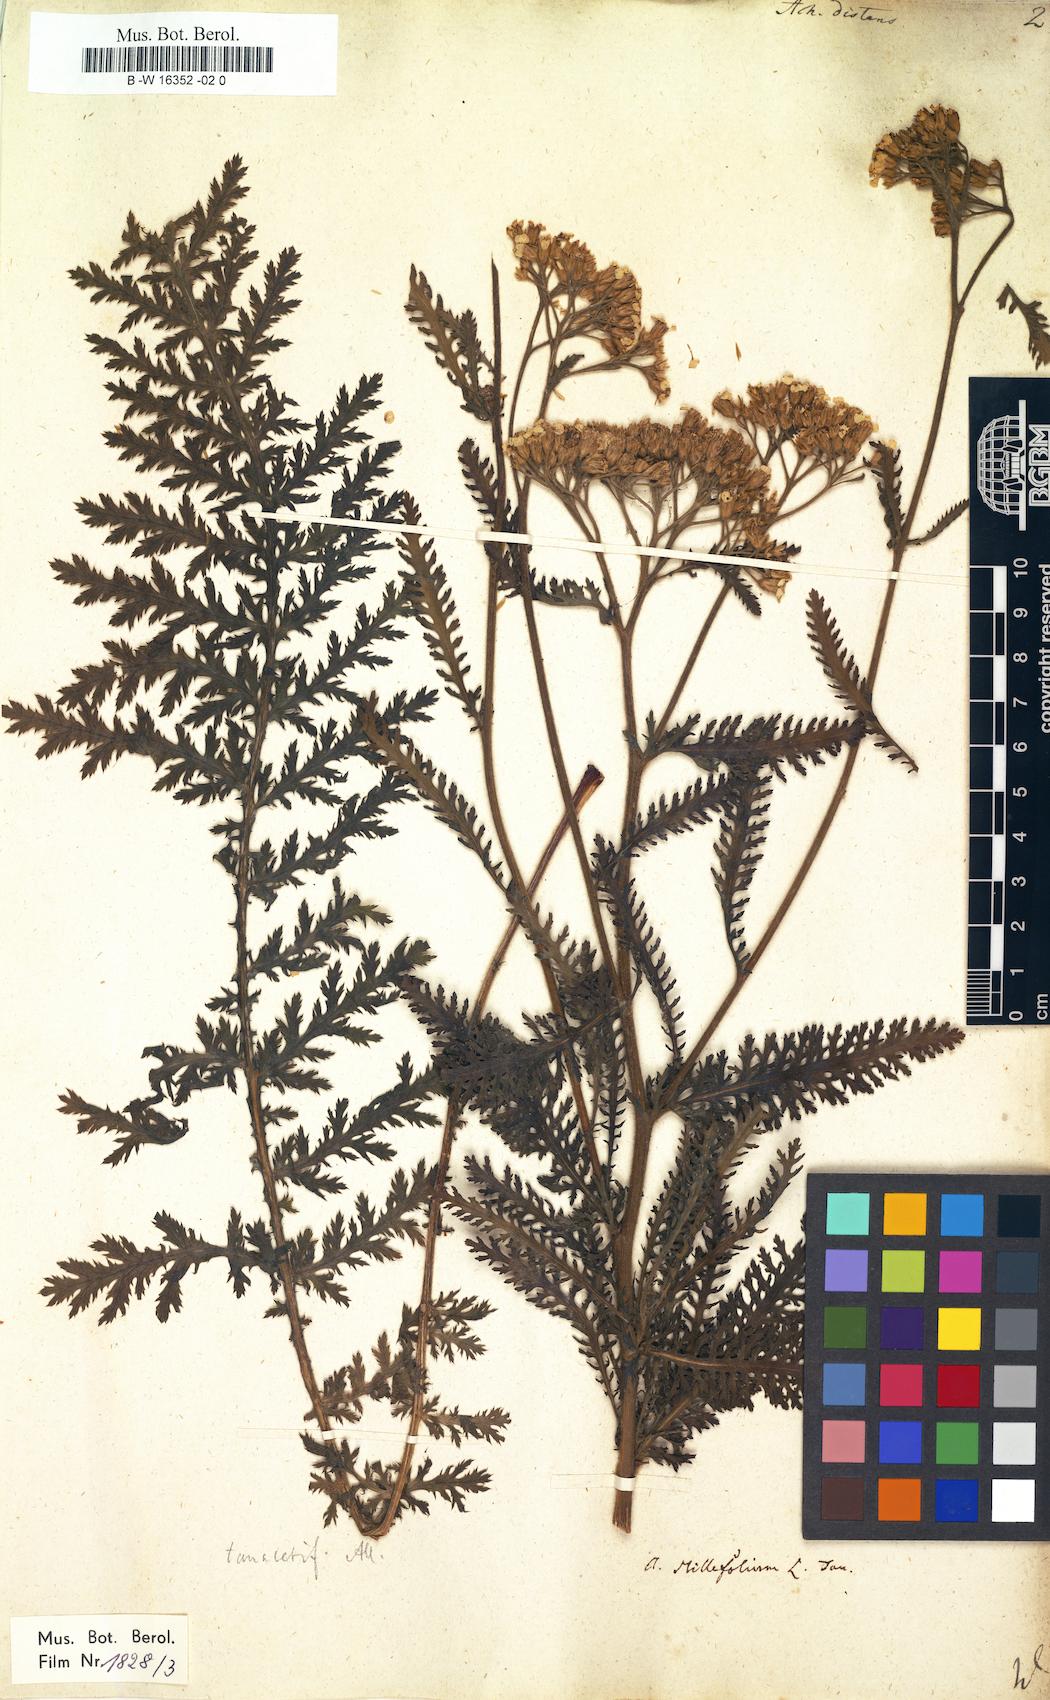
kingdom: Plantae
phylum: Tracheophyta
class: Magnoliopsida
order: Asterales
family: Asteraceae
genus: Achillea
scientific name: Achillea distans
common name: Tall yarrow
